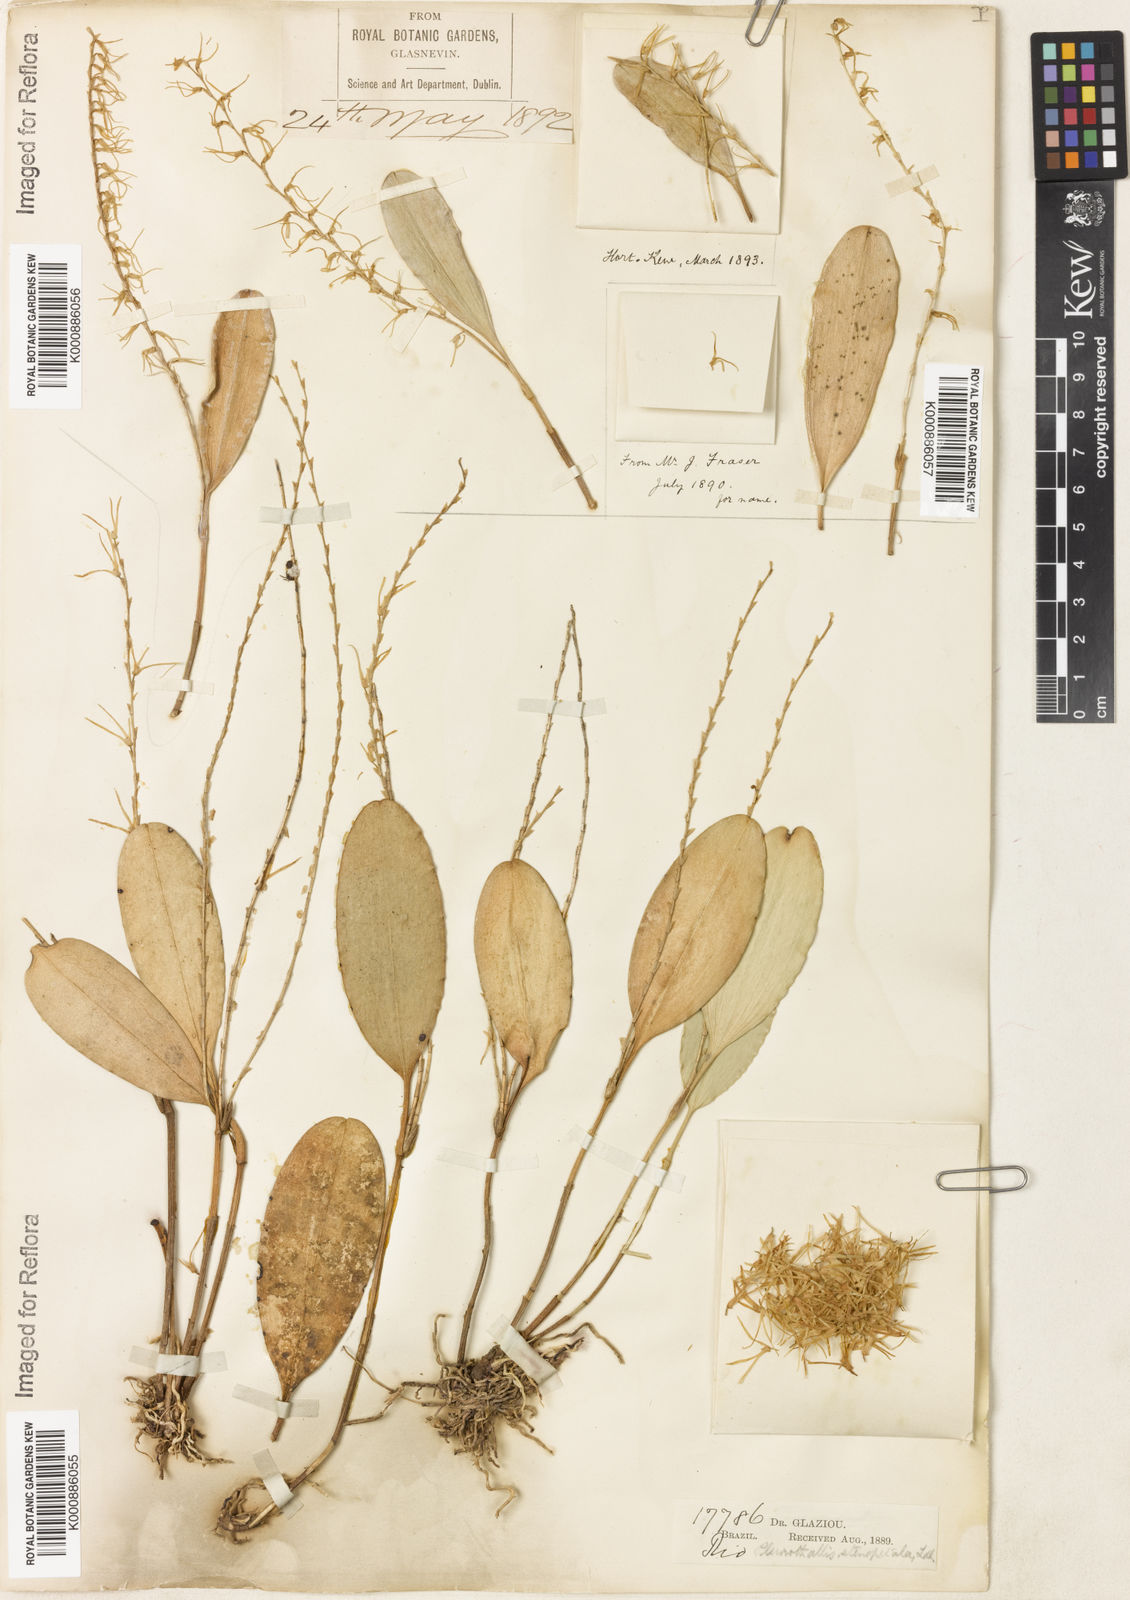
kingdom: Plantae
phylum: Tracheophyta
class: Liliopsida
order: Asparagales
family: Orchidaceae
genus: Stelis
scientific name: Stelis sclerophylla
